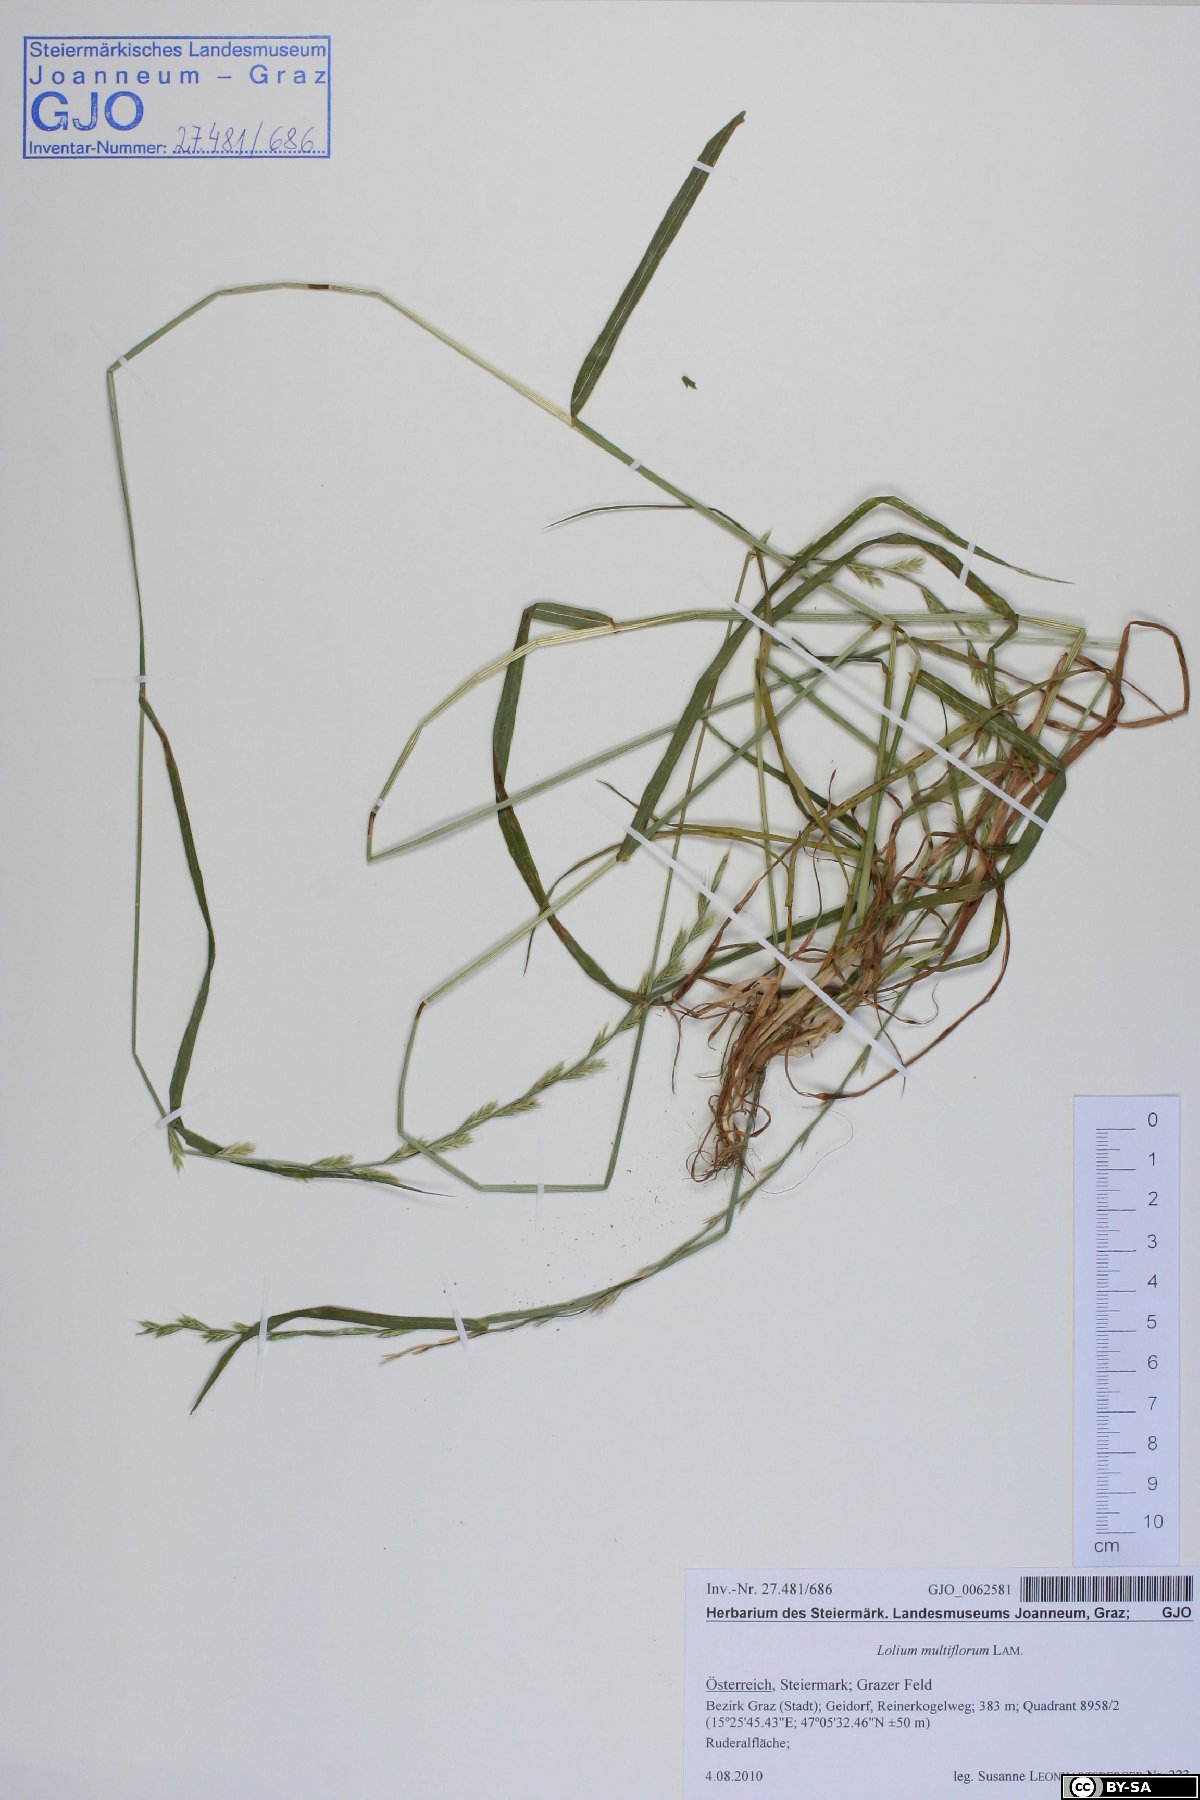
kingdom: Plantae
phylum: Tracheophyta
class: Liliopsida
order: Poales
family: Poaceae
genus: Lolium
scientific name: Lolium multiflorum
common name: Annual ryegrass
